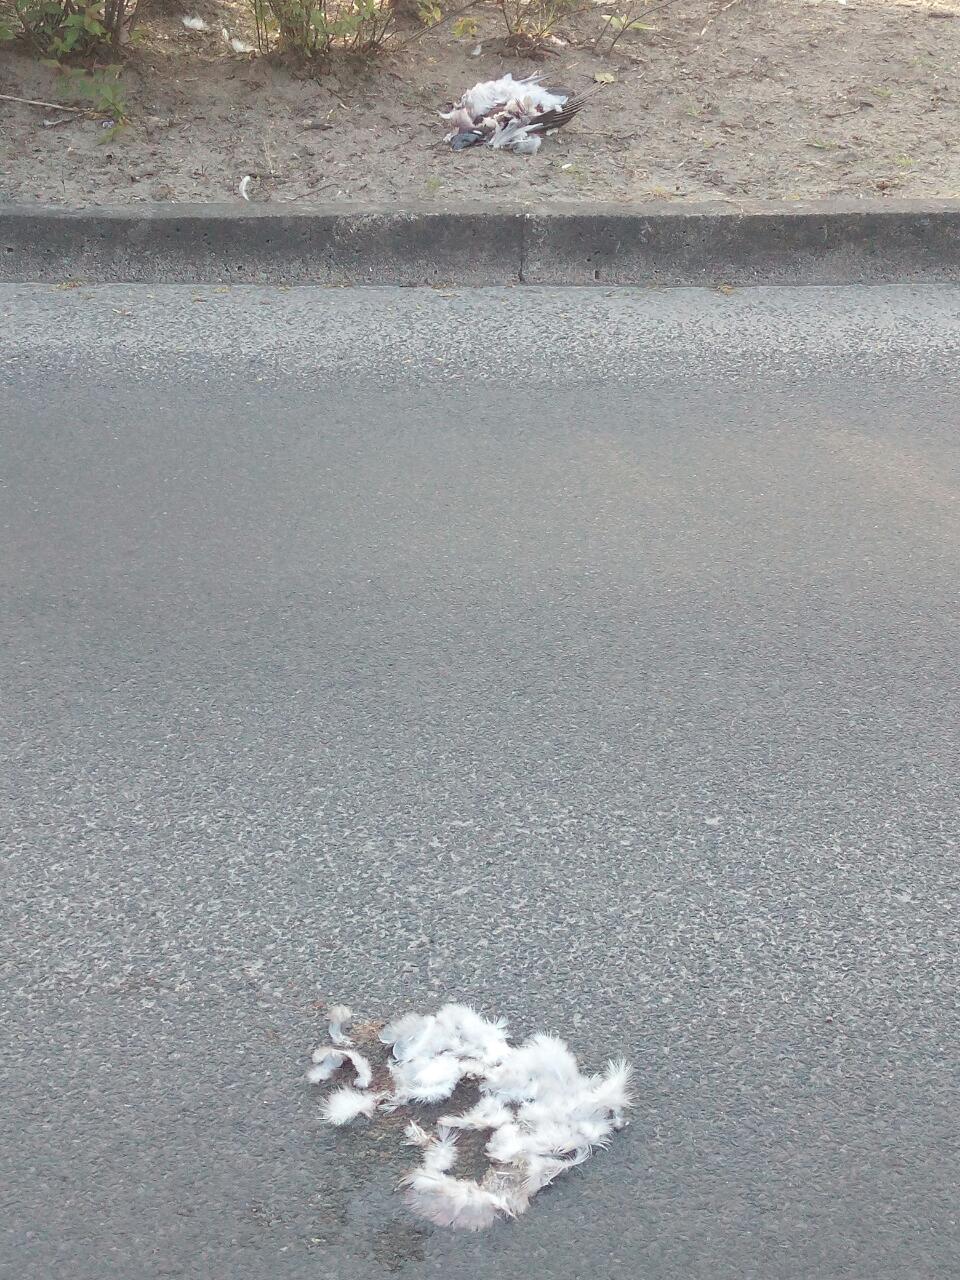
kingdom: Animalia
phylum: Chordata
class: Aves
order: Columbiformes
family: Columbidae
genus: Columba
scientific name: Columba livia
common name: Rock pigeon
